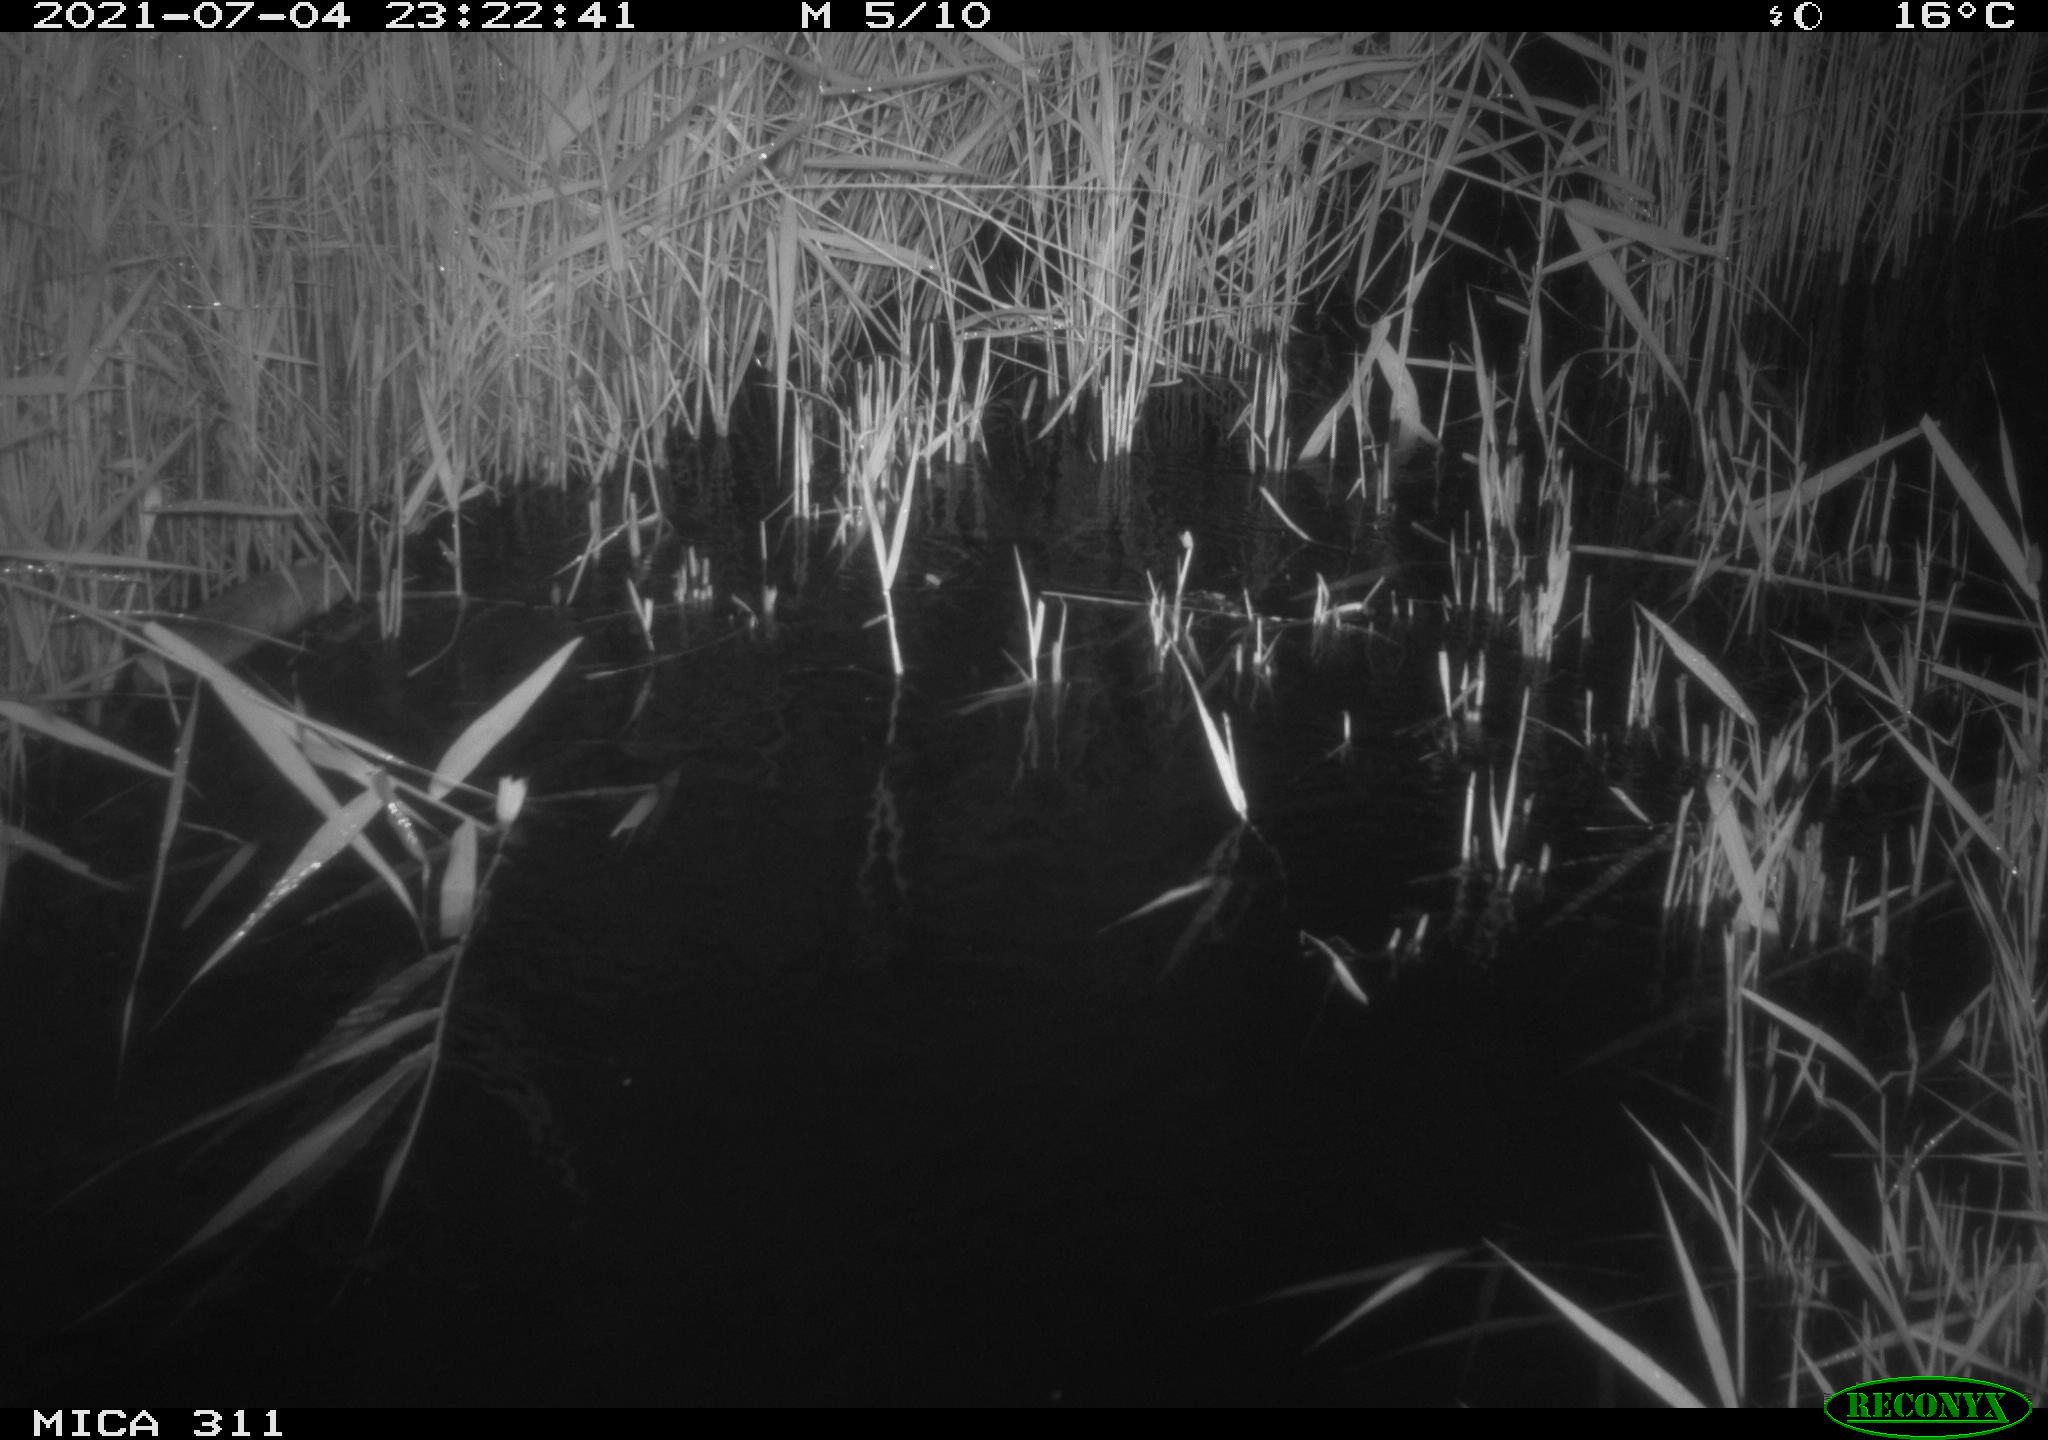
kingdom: Animalia
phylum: Chordata
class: Mammalia
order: Rodentia
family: Muridae
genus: Rattus
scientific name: Rattus norvegicus
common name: Brown rat
